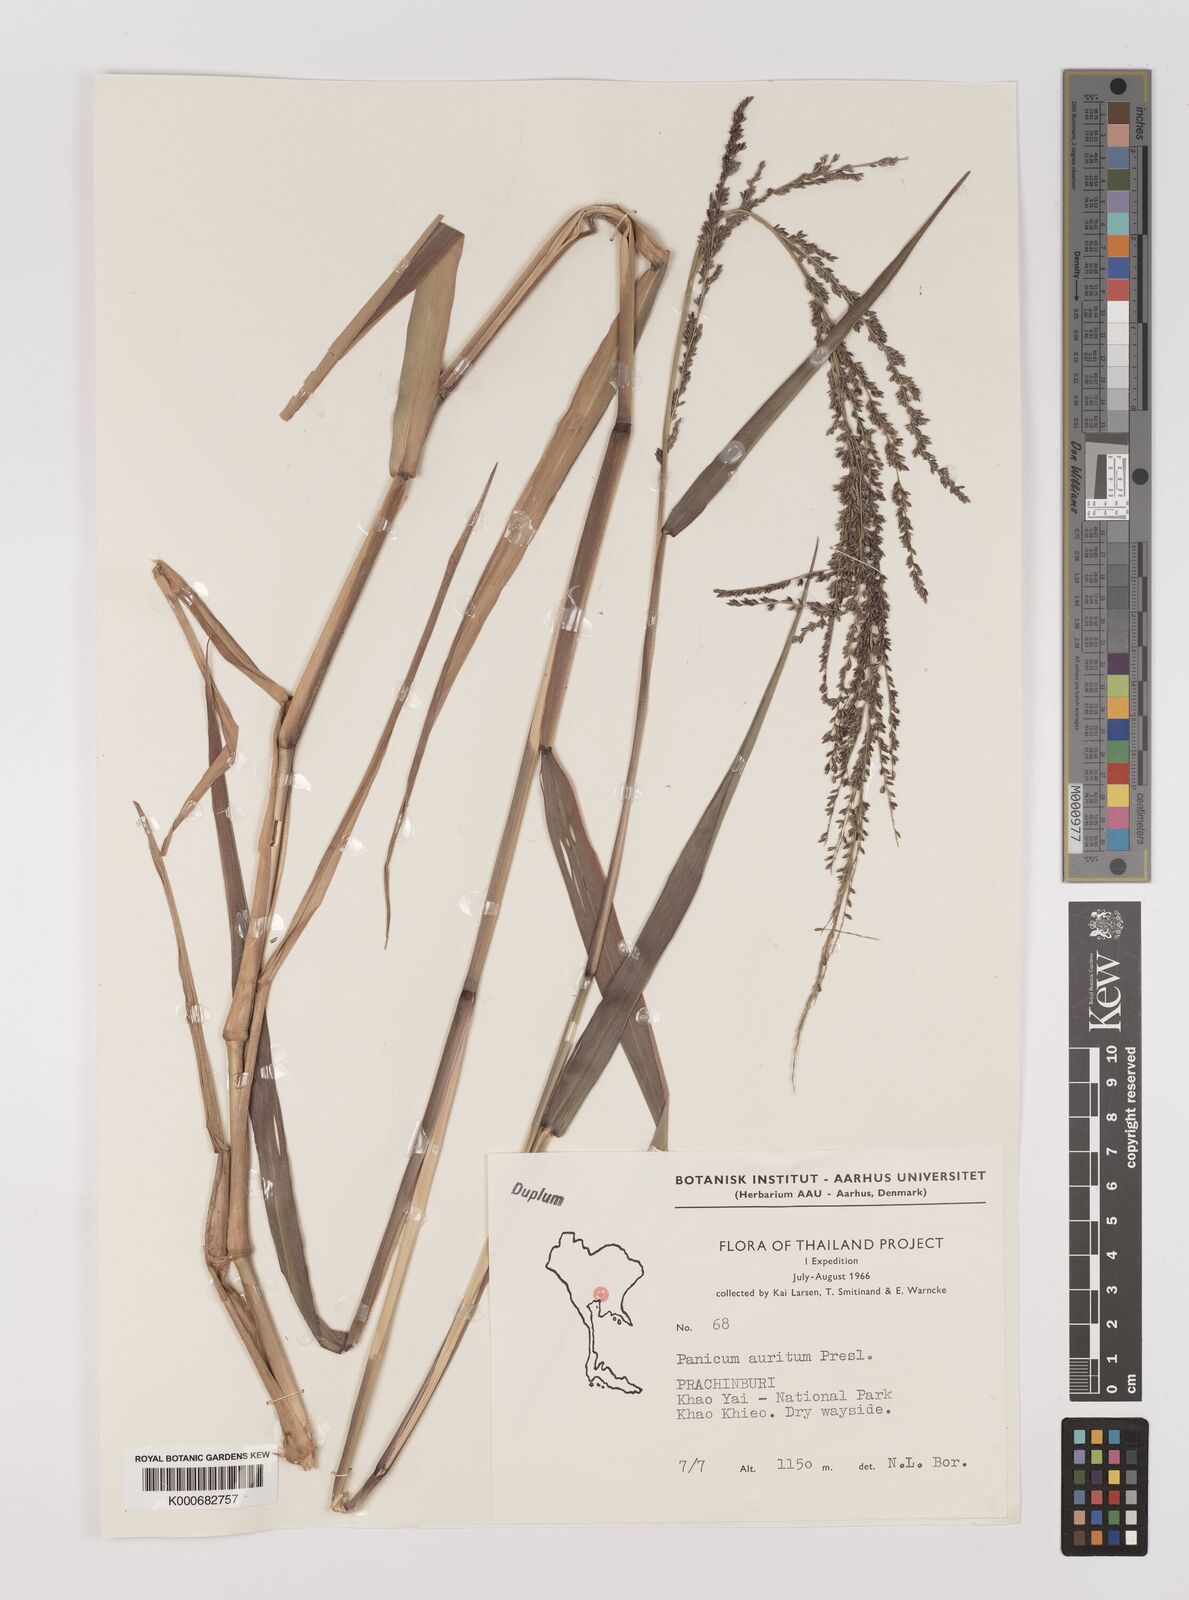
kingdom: Plantae
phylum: Tracheophyta
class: Liliopsida
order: Poales
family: Poaceae
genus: Hymenachne
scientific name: Hymenachne aurita
